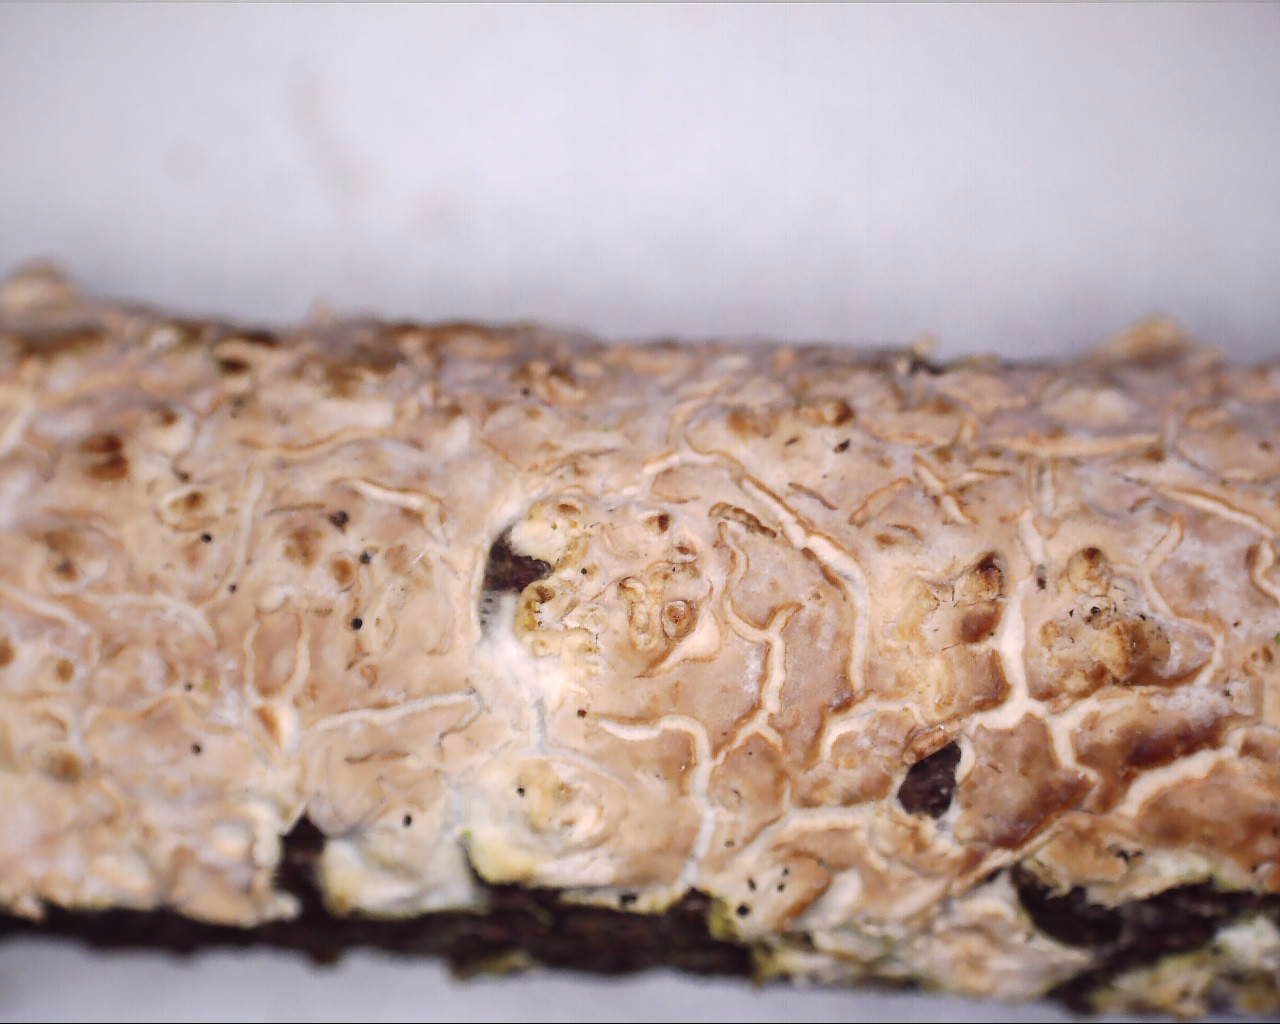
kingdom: Fungi
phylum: Basidiomycota
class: Agaricomycetes
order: Agaricales
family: Physalacriaceae
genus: Cylindrobasidium
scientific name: Cylindrobasidium evolvens
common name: sprækkehinde
